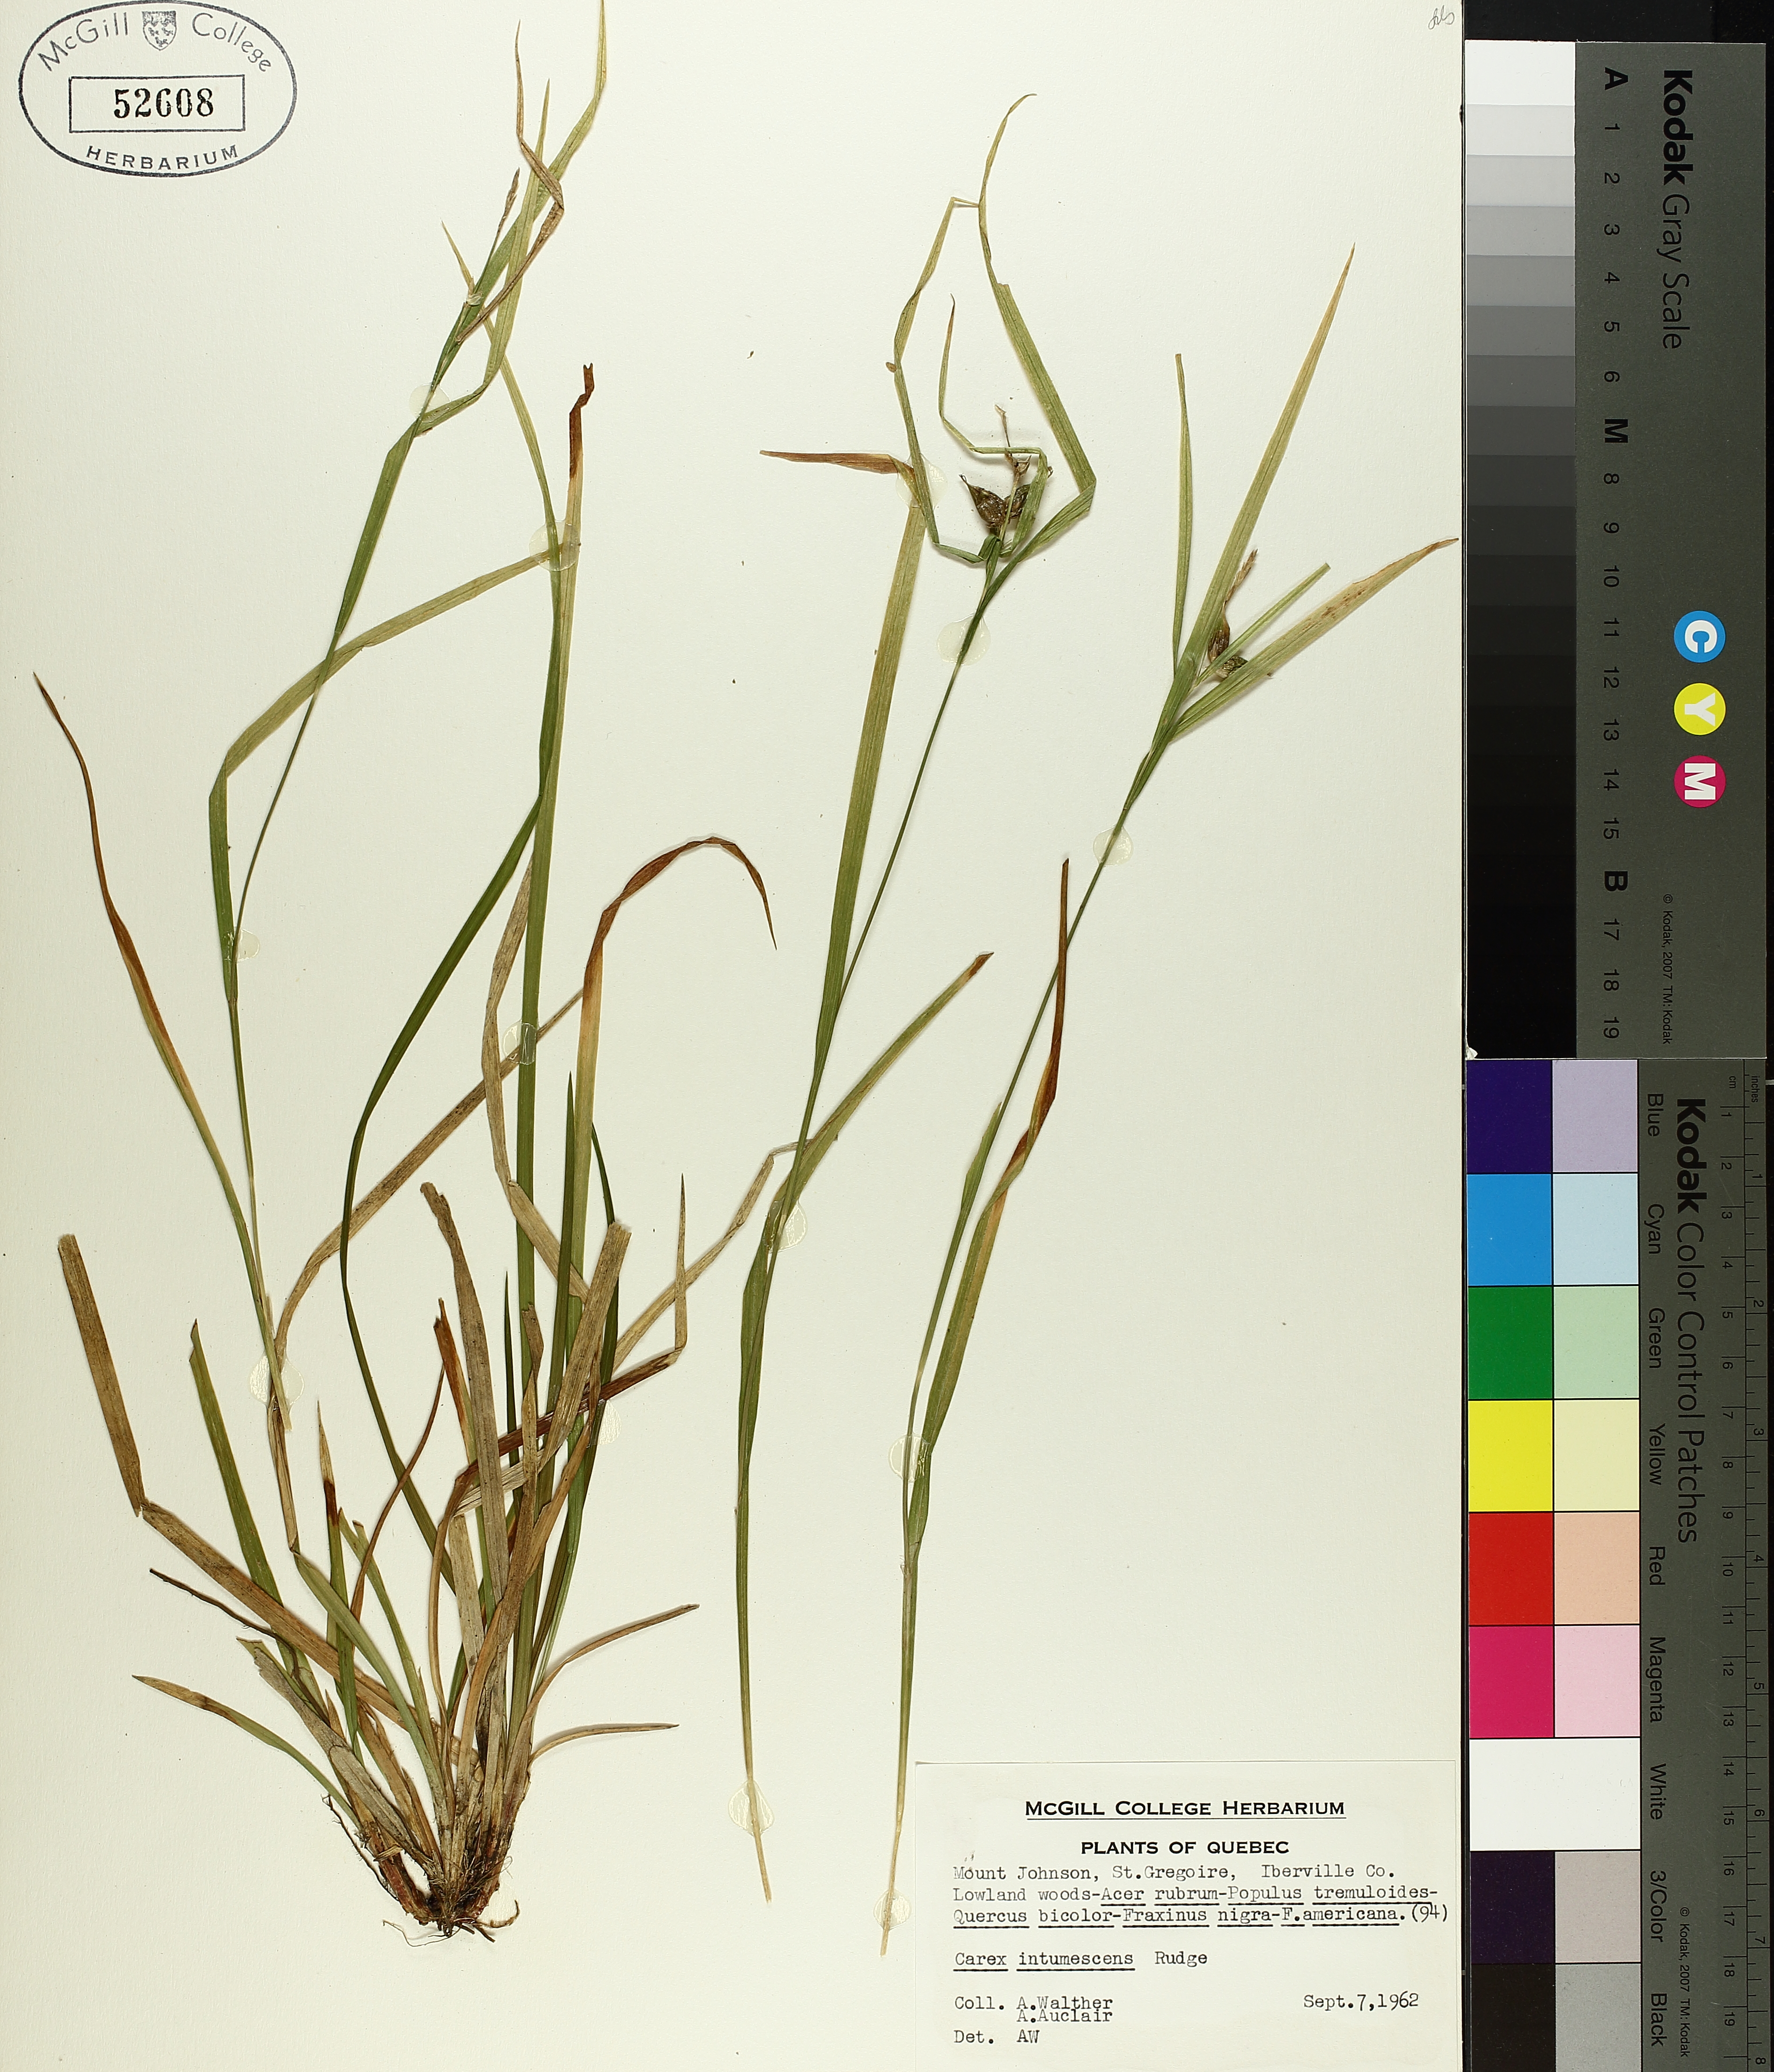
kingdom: Plantae
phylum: Tracheophyta
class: Liliopsida
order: Poales
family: Cyperaceae
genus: Carex
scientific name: Carex intumescens
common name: Greater bladder sedge
